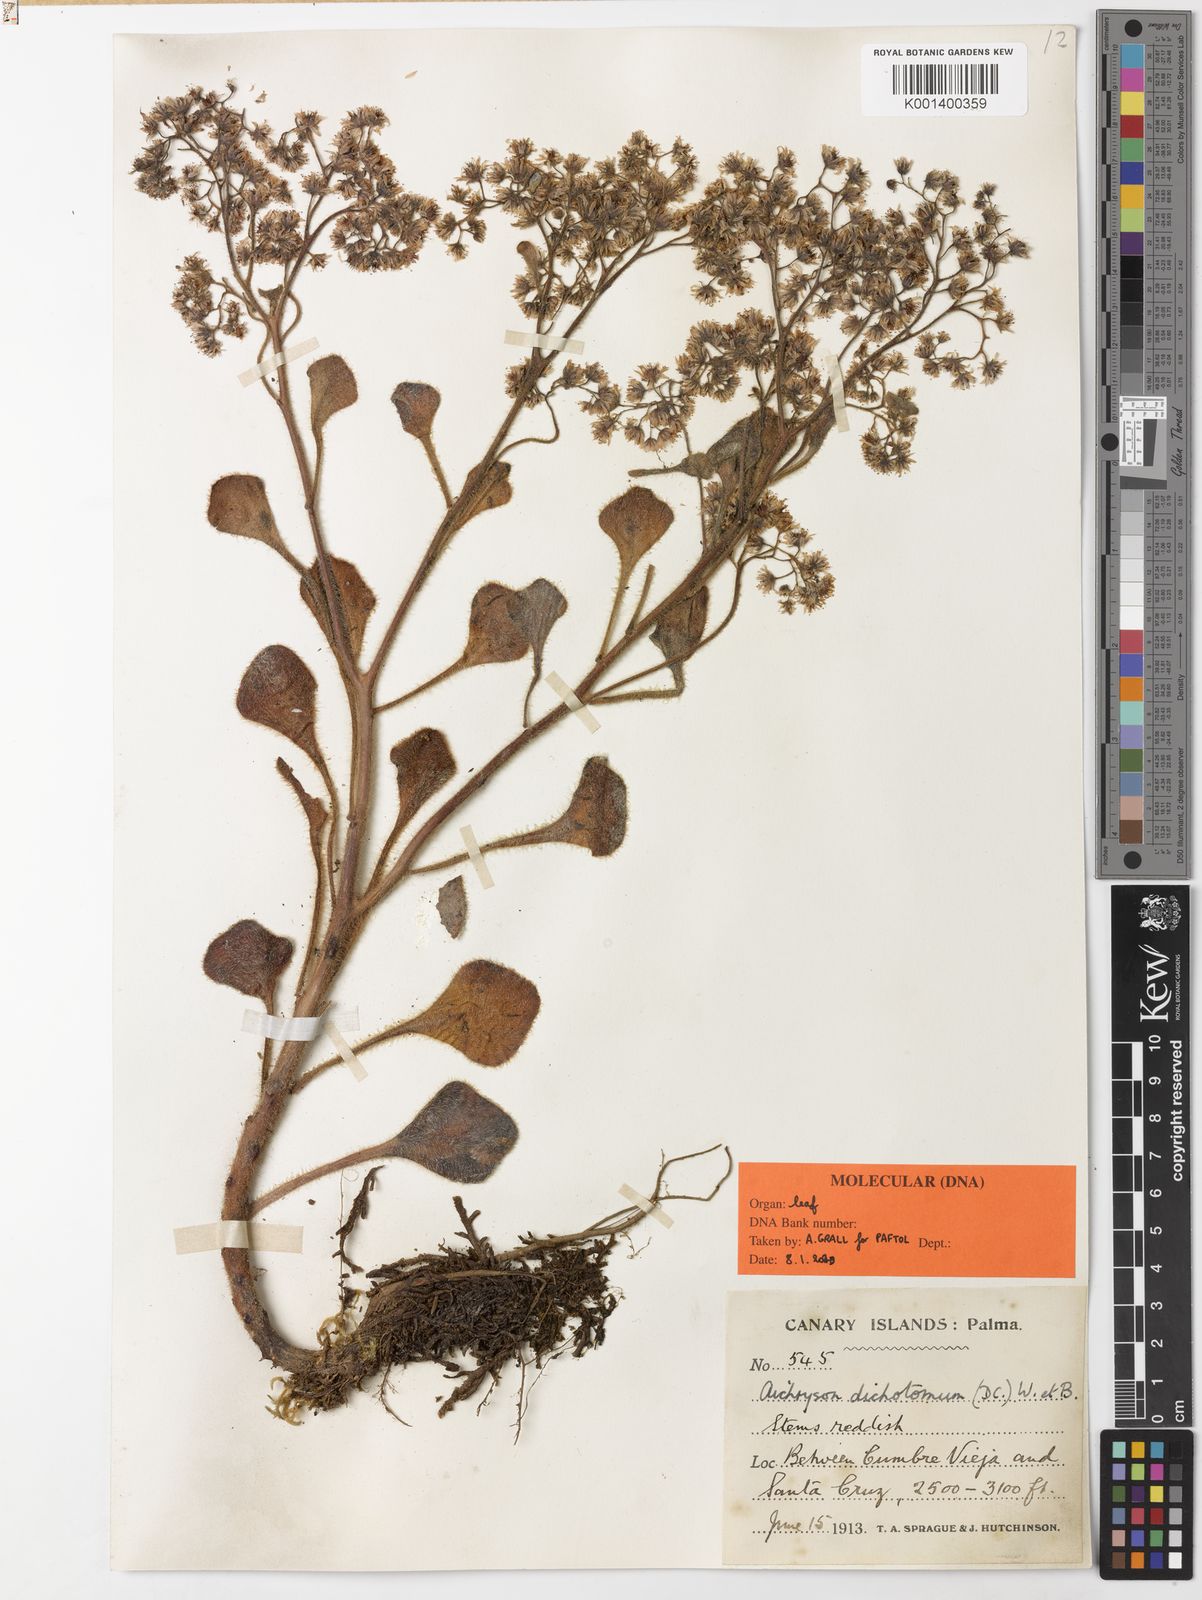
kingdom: Plantae
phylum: Tracheophyta
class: Magnoliopsida
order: Saxifragales
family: Crassulaceae
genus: Aichryson
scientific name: Aichryson
